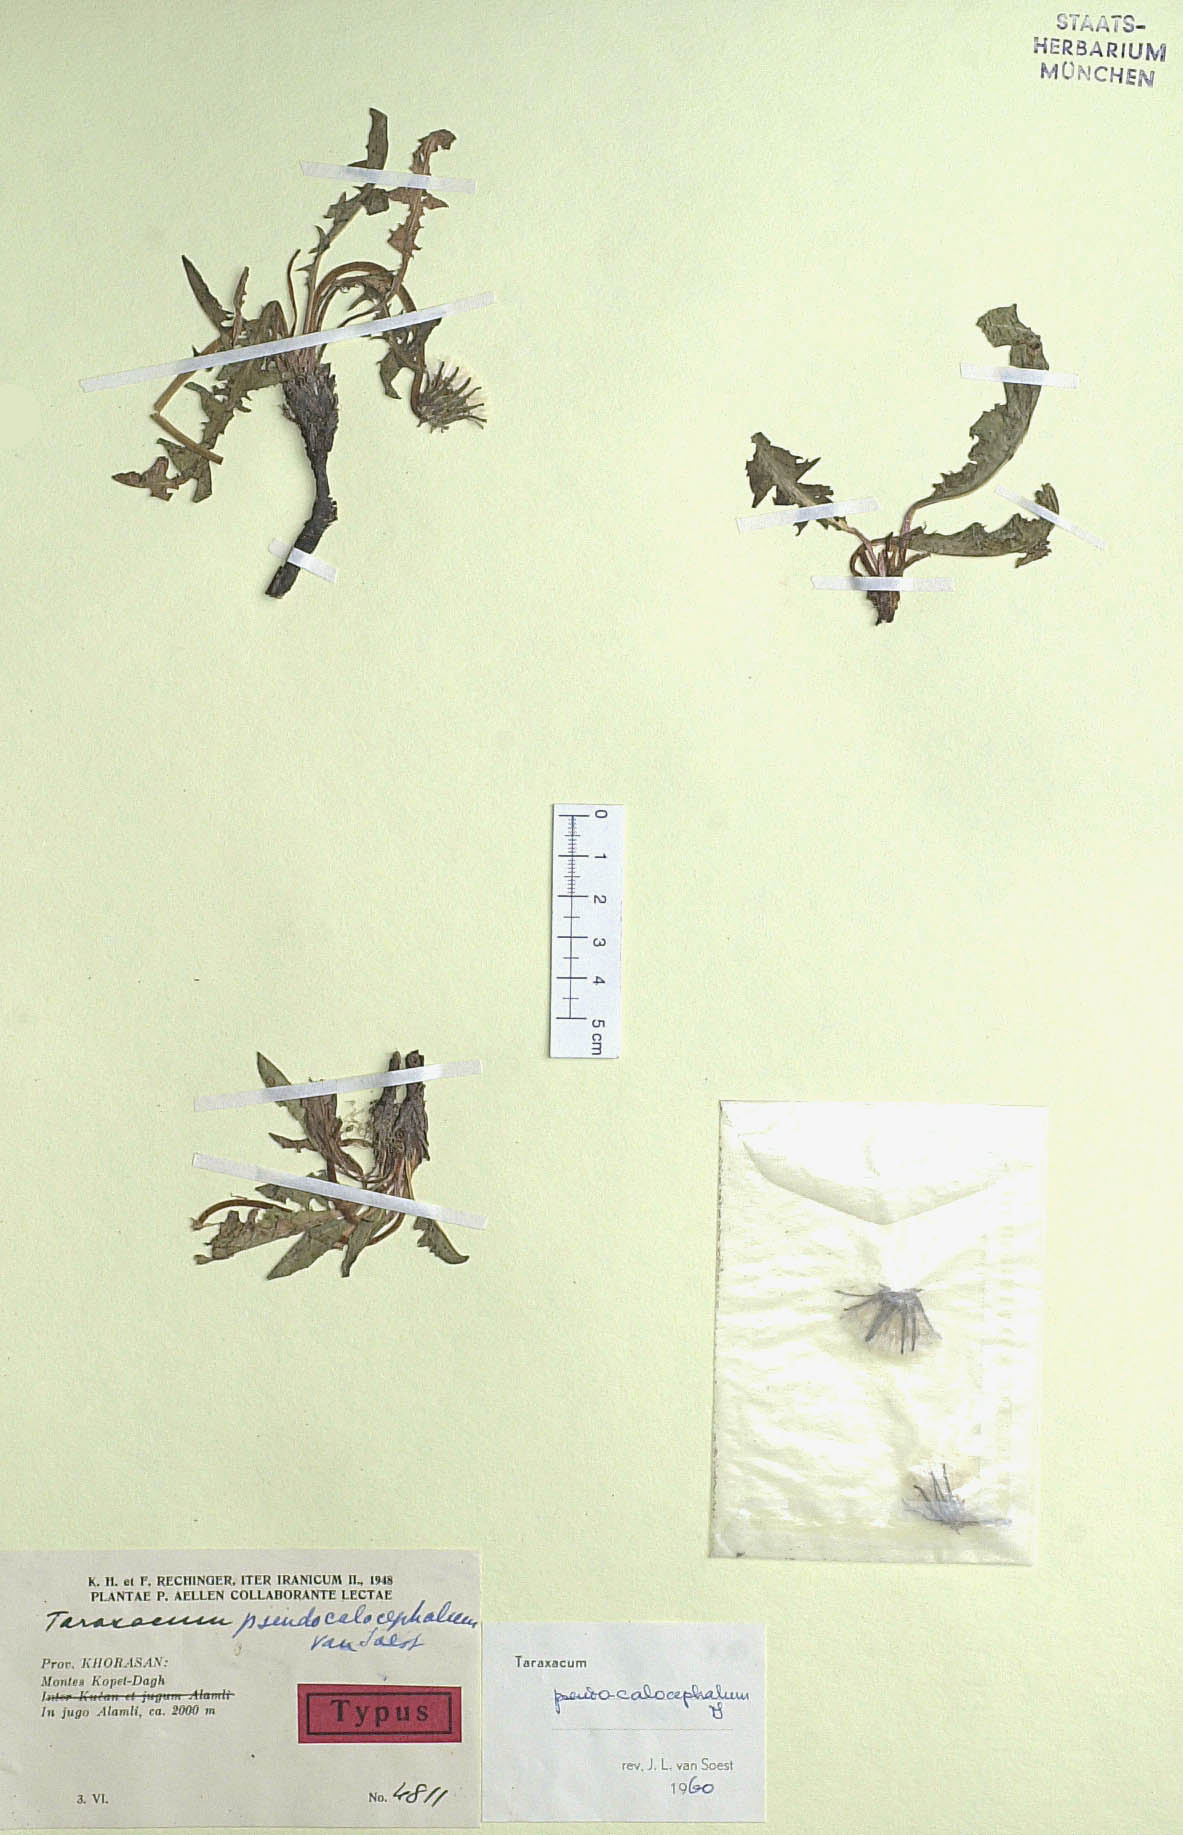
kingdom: Plantae
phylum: Tracheophyta
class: Magnoliopsida
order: Asterales
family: Asteraceae
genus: Taraxacum
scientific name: Taraxacum pseudocalocephalum
